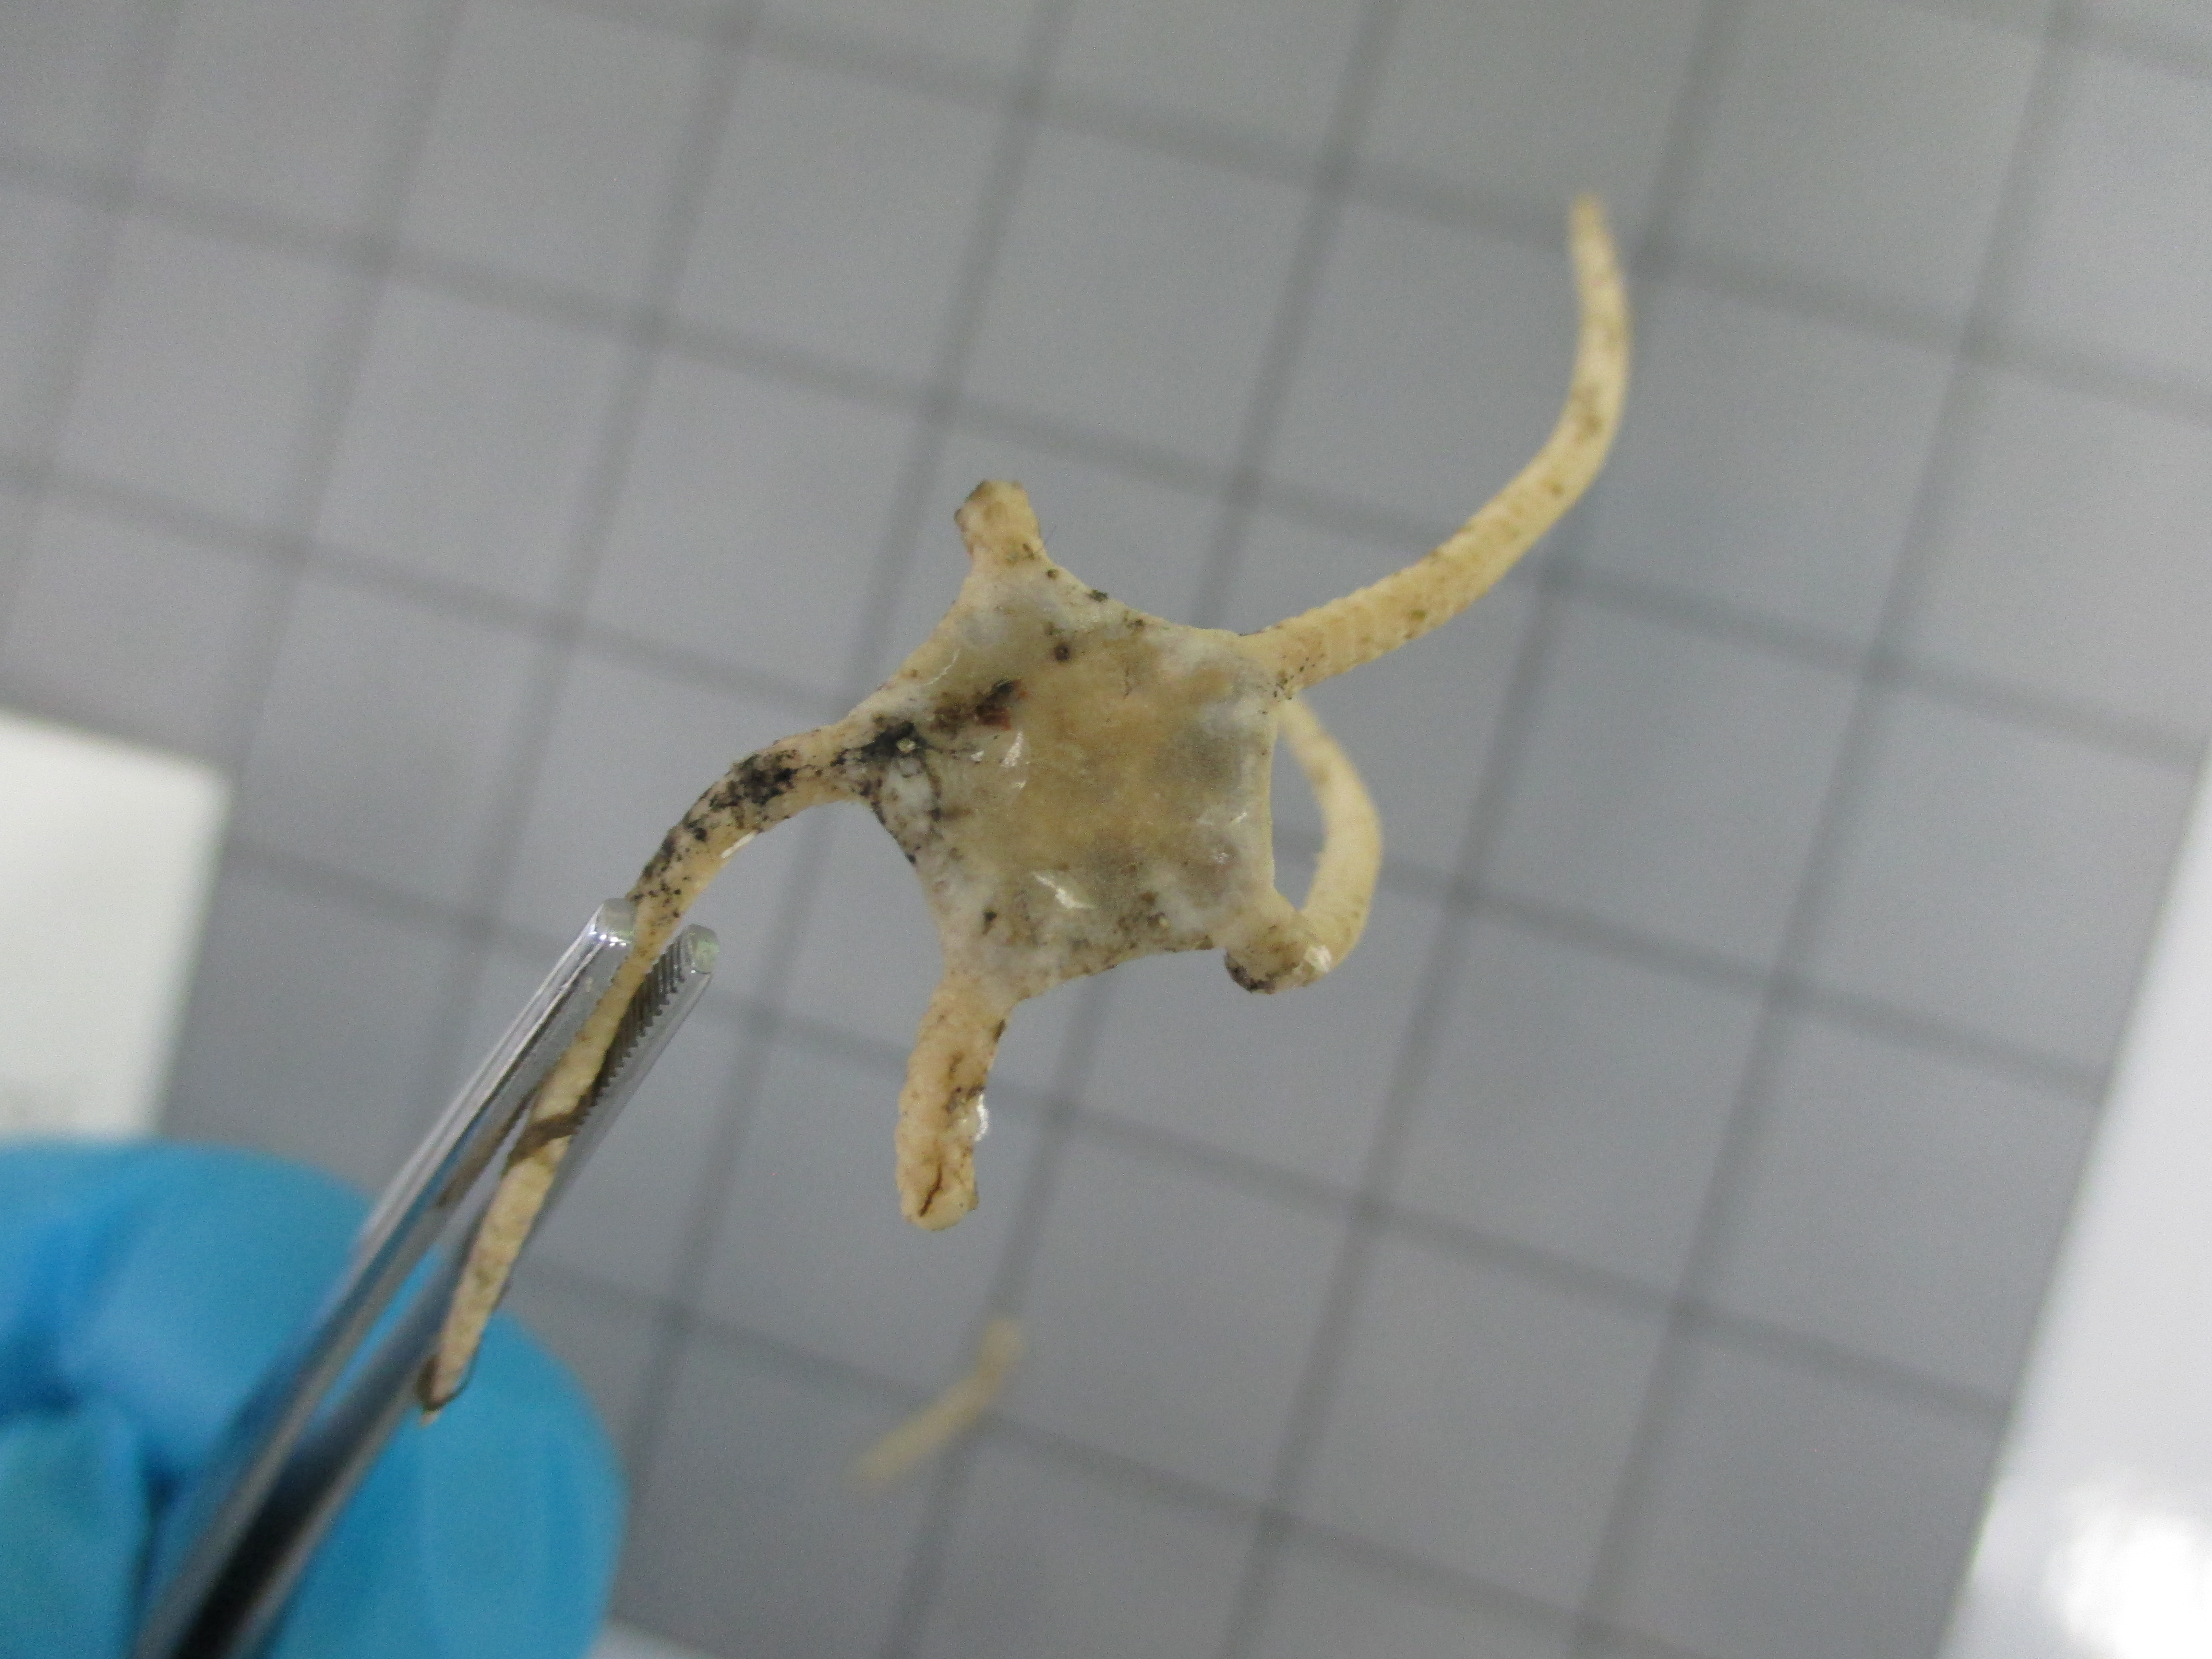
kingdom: Animalia
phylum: Echinodermata
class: Ophiuroidea
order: Ophiacanthida
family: Ophiodermatidae
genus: Cryptopelta
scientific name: Cryptopelta aster
